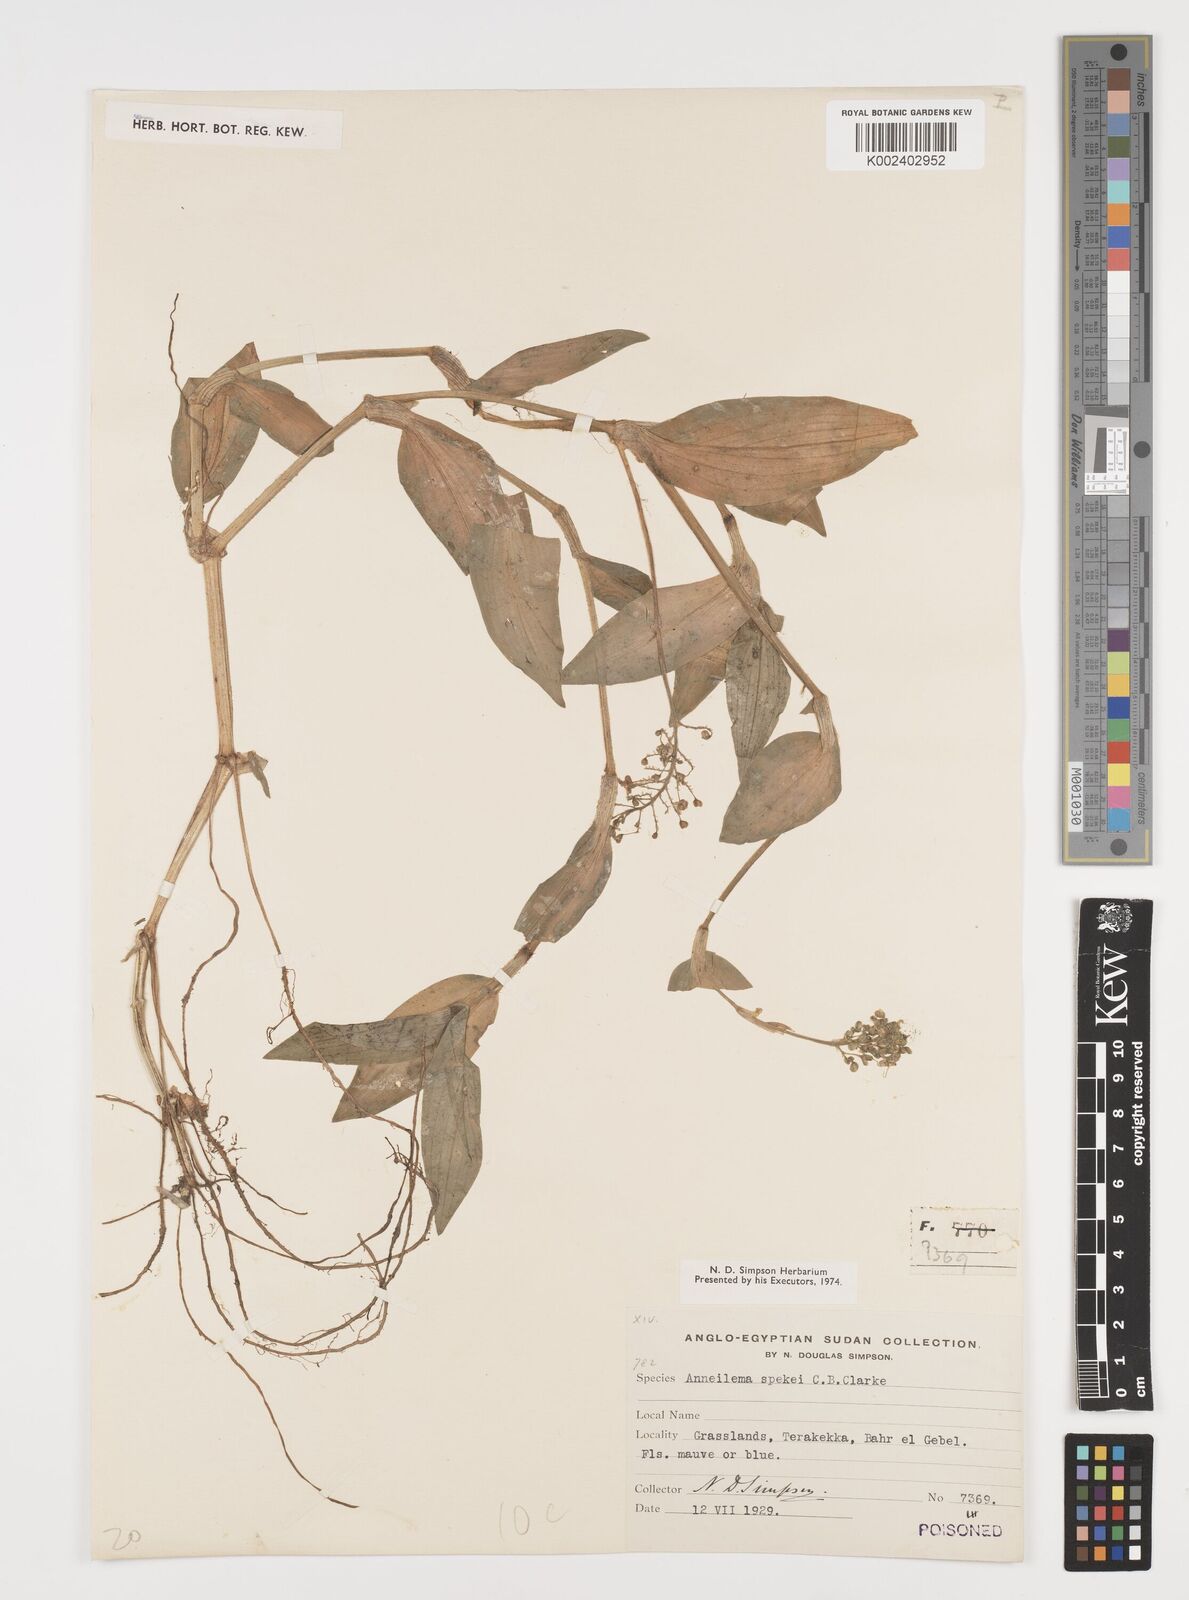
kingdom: Plantae
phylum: Tracheophyta
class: Liliopsida
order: Commelinales
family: Commelinaceae
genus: Aneilema
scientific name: Aneilema spekei
